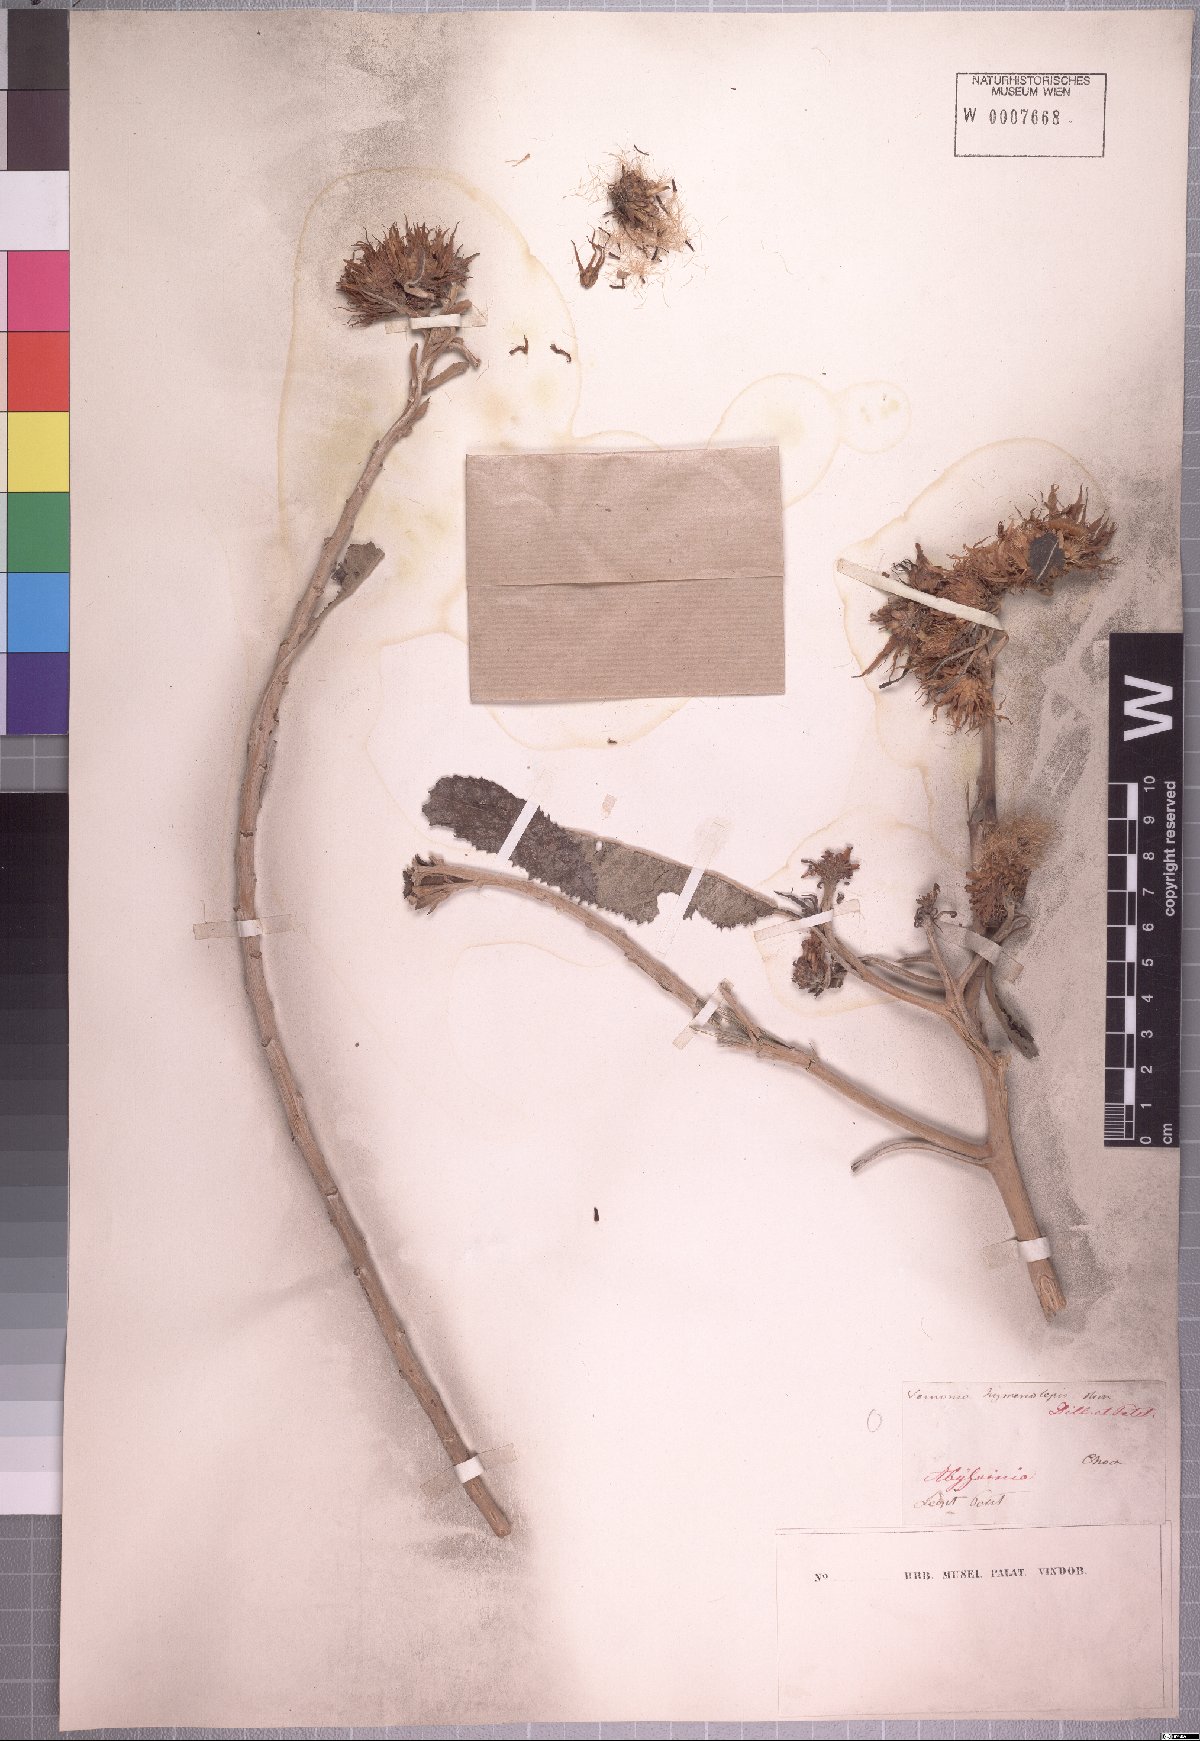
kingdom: Plantae
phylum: Tracheophyta
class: Magnoliopsida
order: Asterales
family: Asteraceae
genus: Baccharoides
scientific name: Baccharoides hymenolepis
